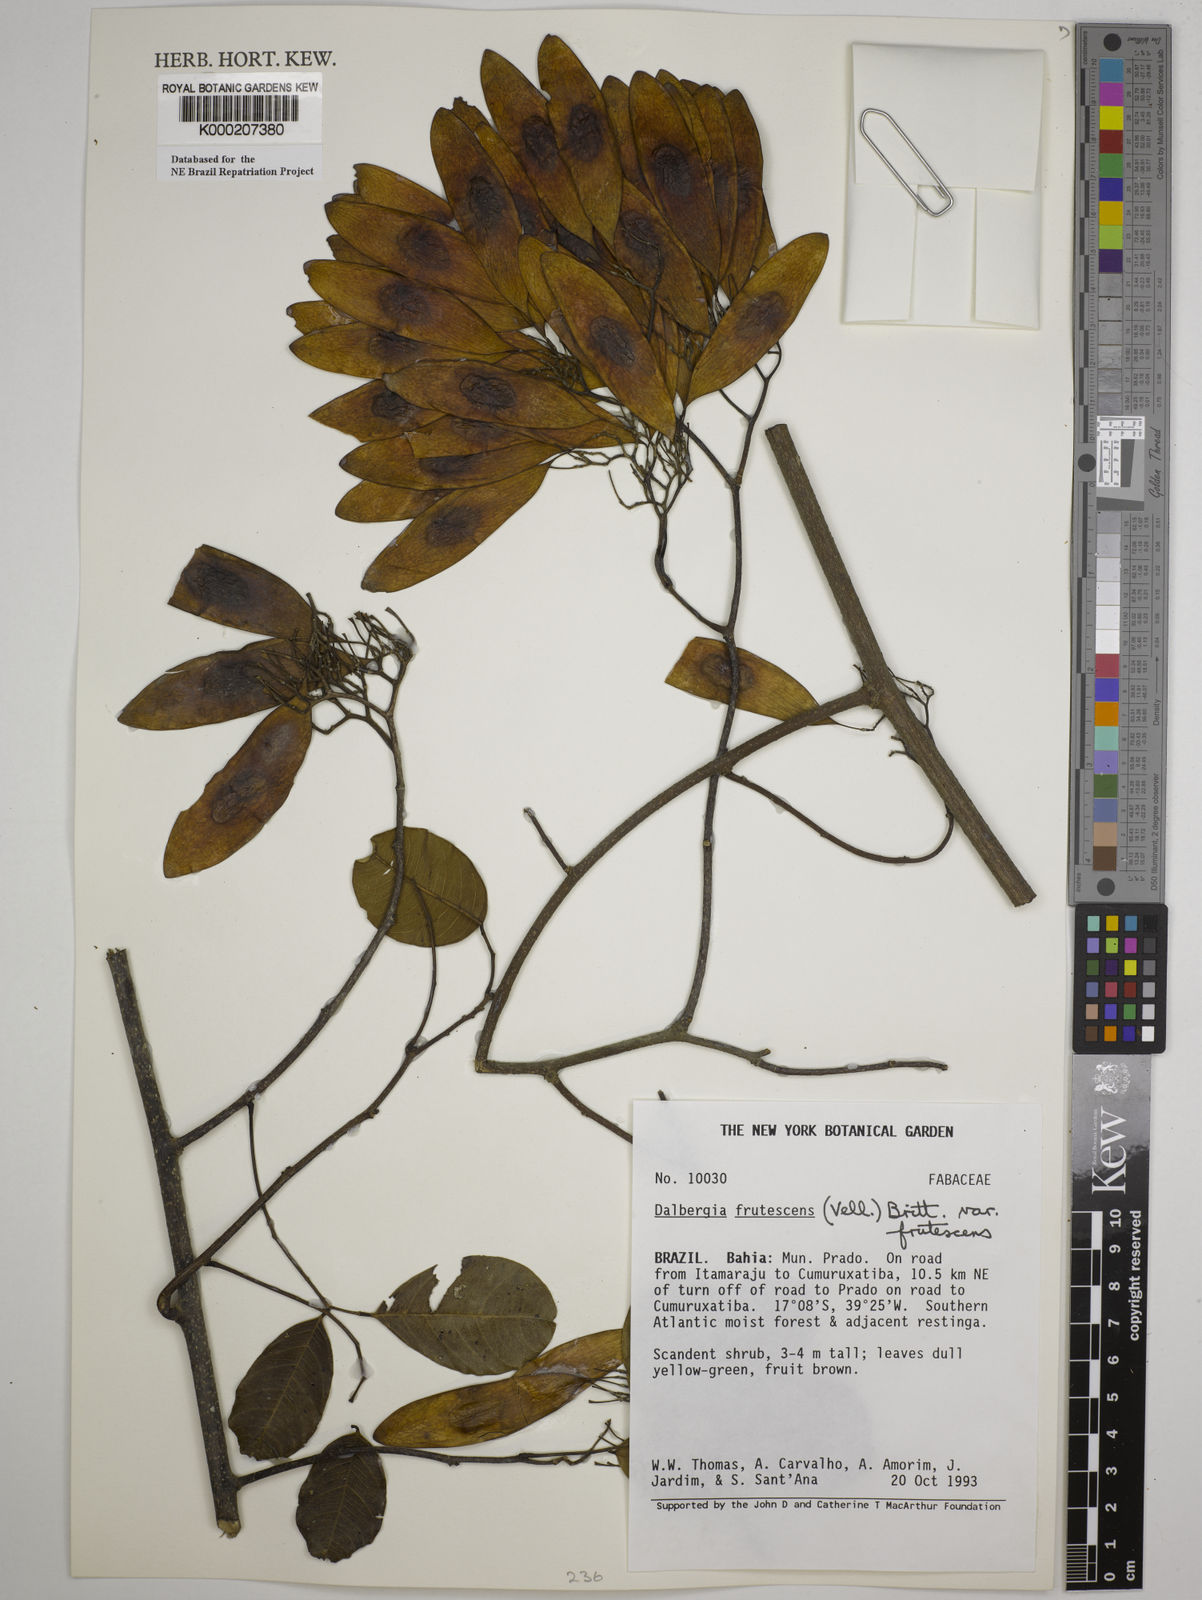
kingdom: Plantae
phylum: Tracheophyta
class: Magnoliopsida
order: Fabales
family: Fabaceae
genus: Dalbergia
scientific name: Dalbergia frutescens
